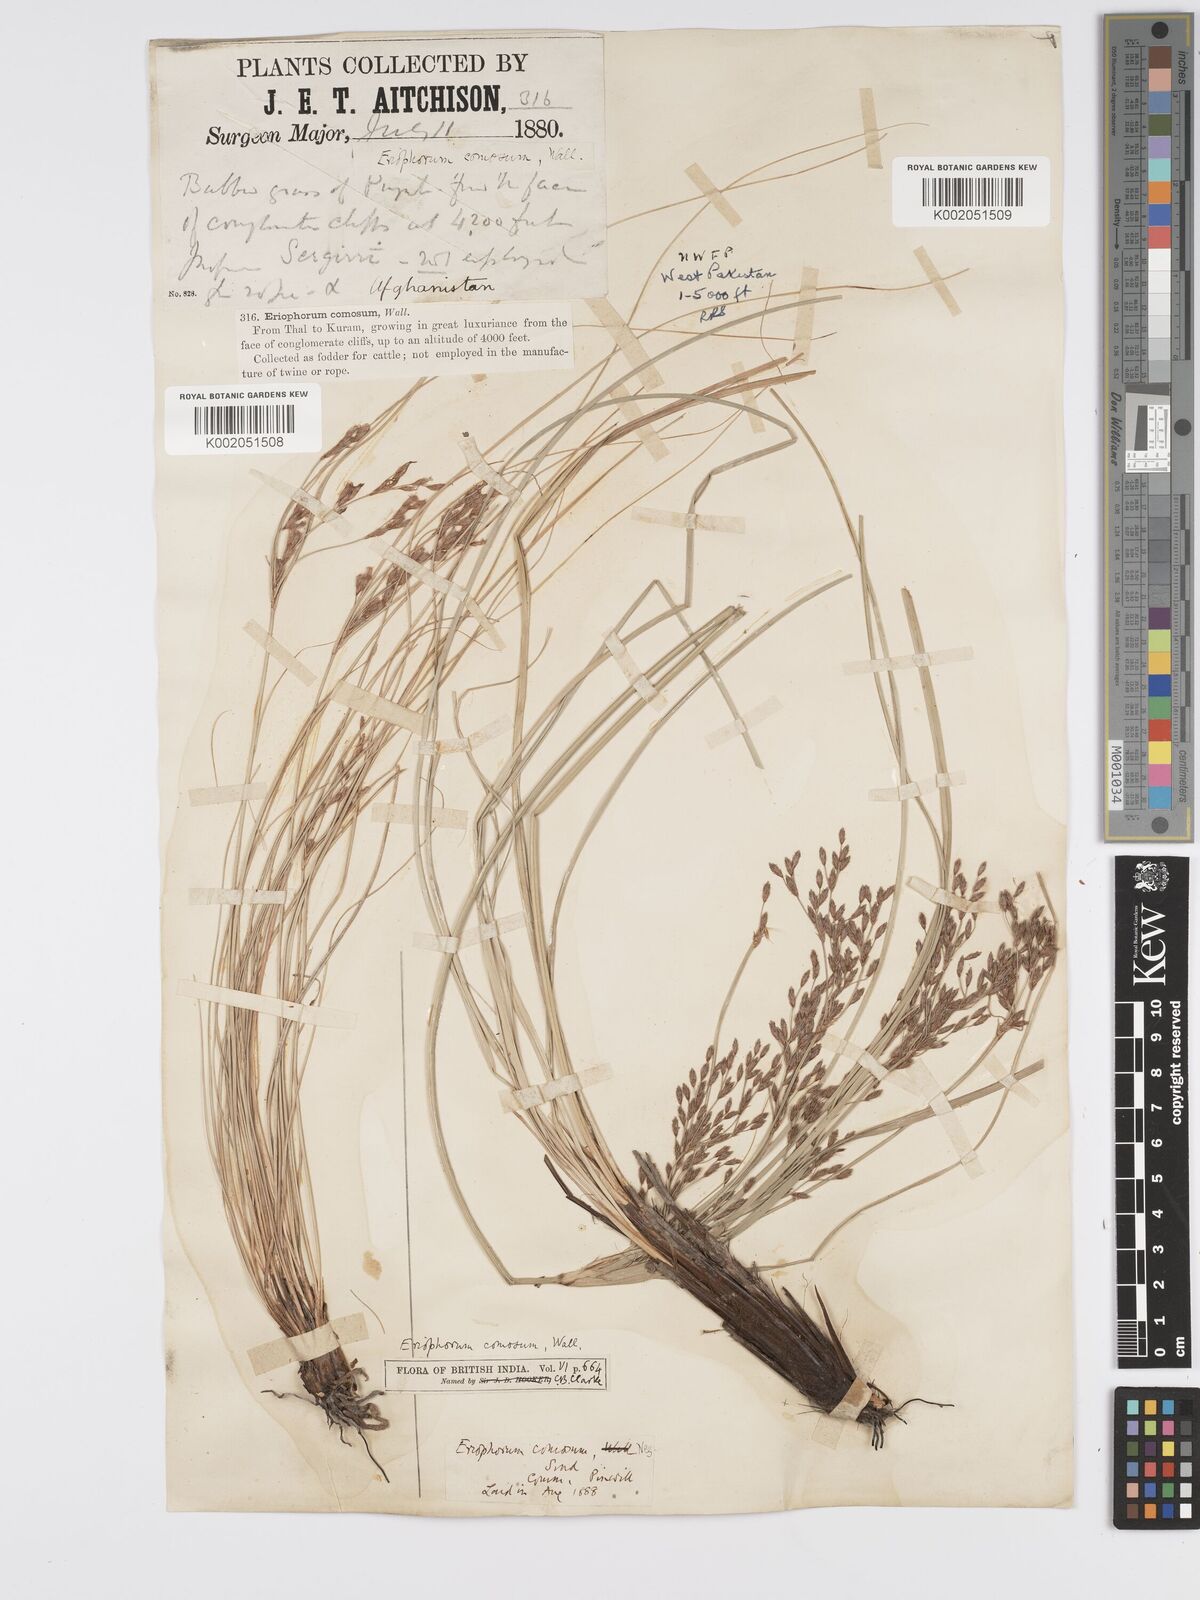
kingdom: Plantae
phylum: Tracheophyta
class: Liliopsida
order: Poales
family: Cyperaceae
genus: Erioscirpus
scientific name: Erioscirpus comosus
